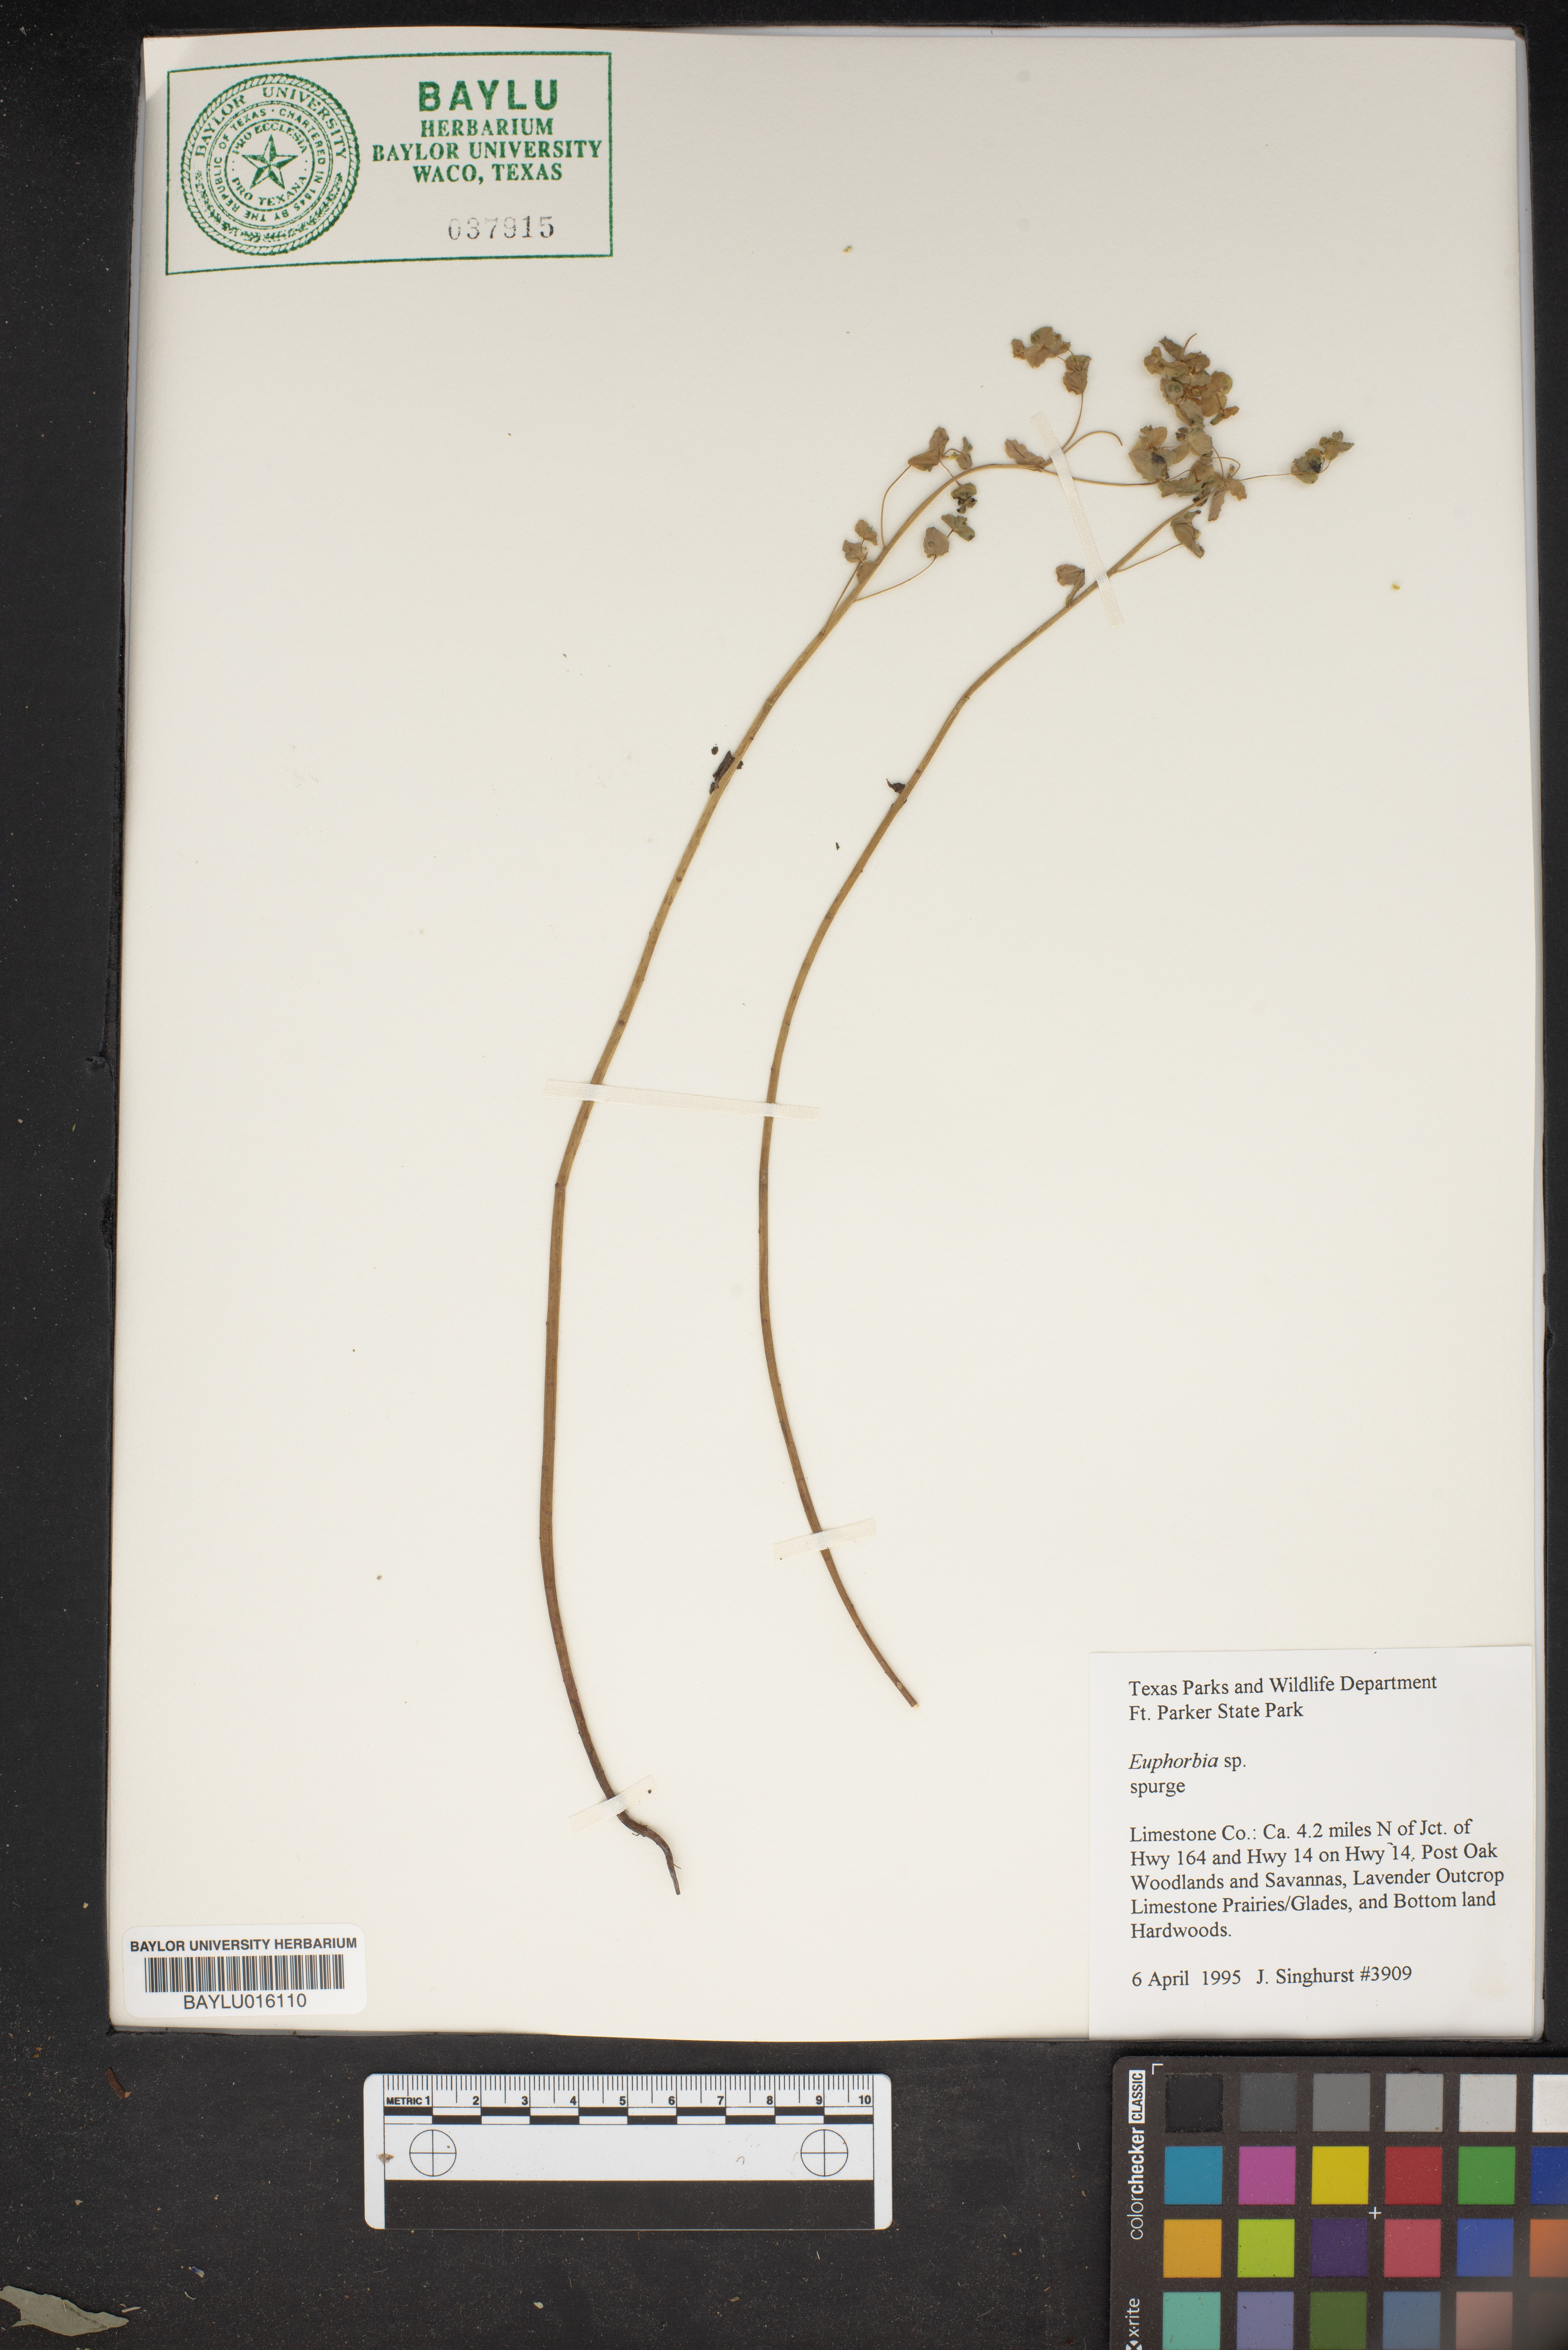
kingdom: Plantae
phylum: Tracheophyta
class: Magnoliopsida
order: Malpighiales
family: Euphorbiaceae
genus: Euphorbia
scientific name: Euphorbia
